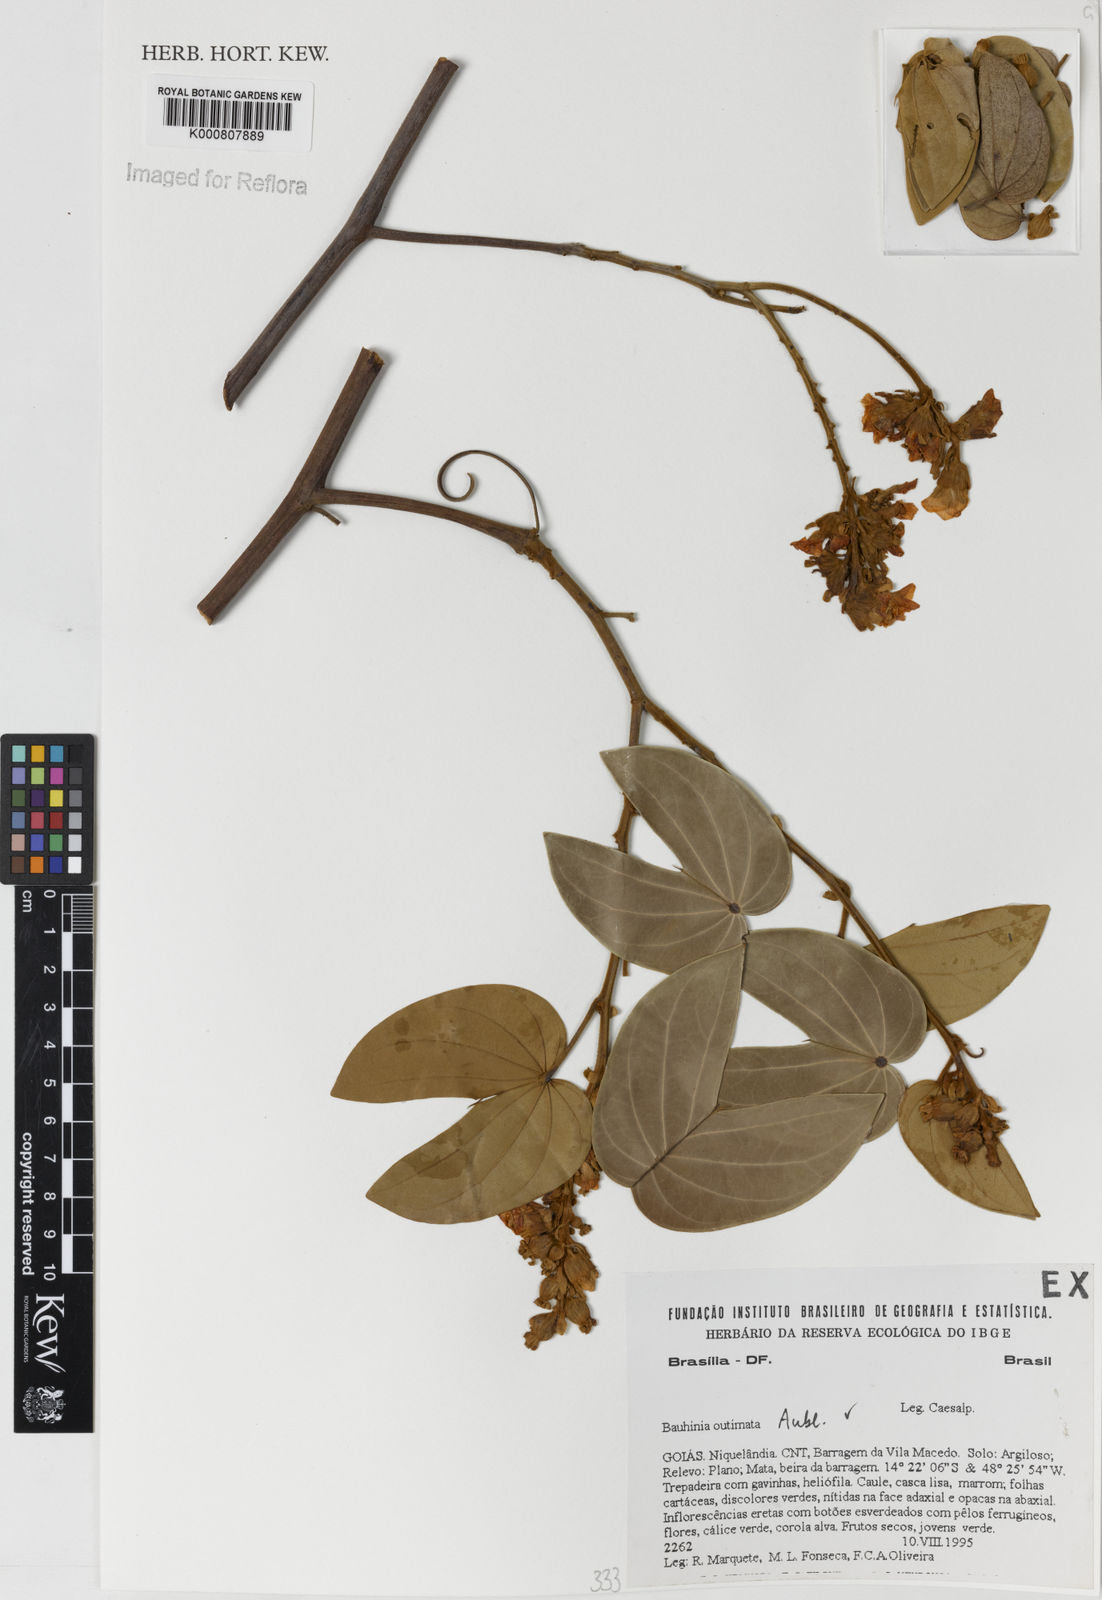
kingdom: Plantae
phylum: Tracheophyta
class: Magnoliopsida
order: Fabales
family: Fabaceae
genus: Bauhinia
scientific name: Bauhinia
